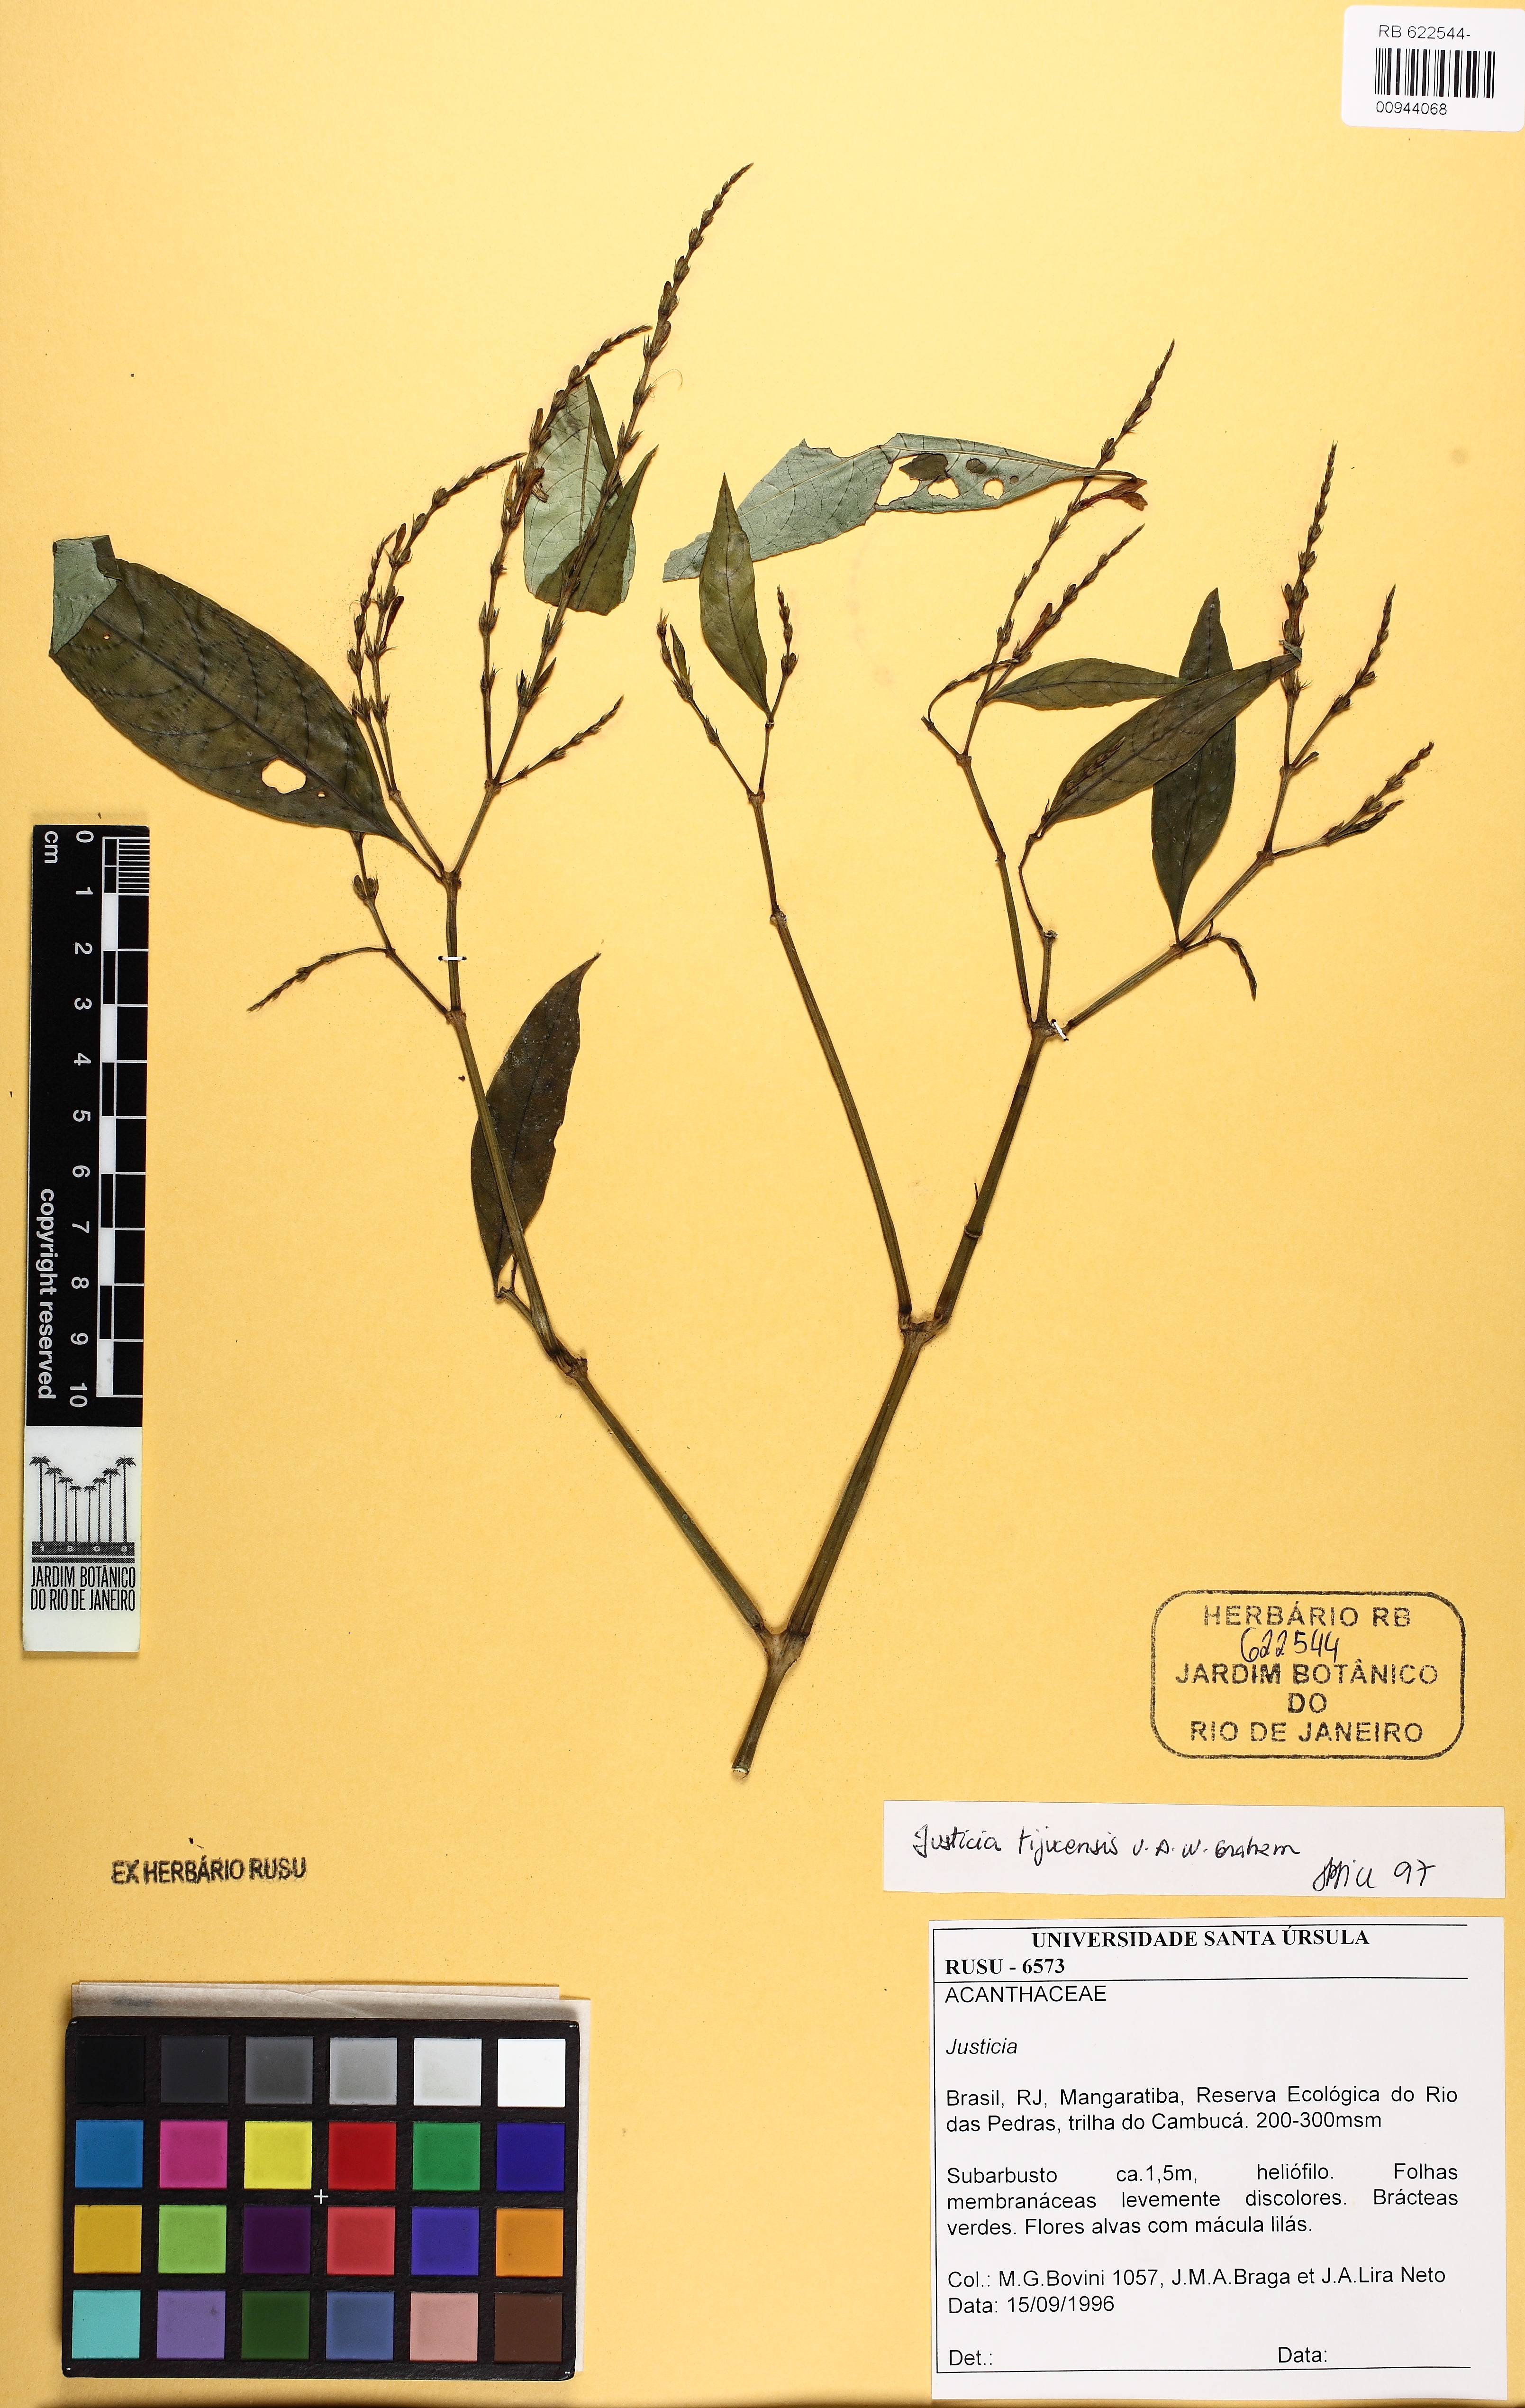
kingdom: Plantae
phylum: Tracheophyta
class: Magnoliopsida
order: Lamiales
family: Acanthaceae
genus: Dianthera
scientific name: Dianthera laeta
